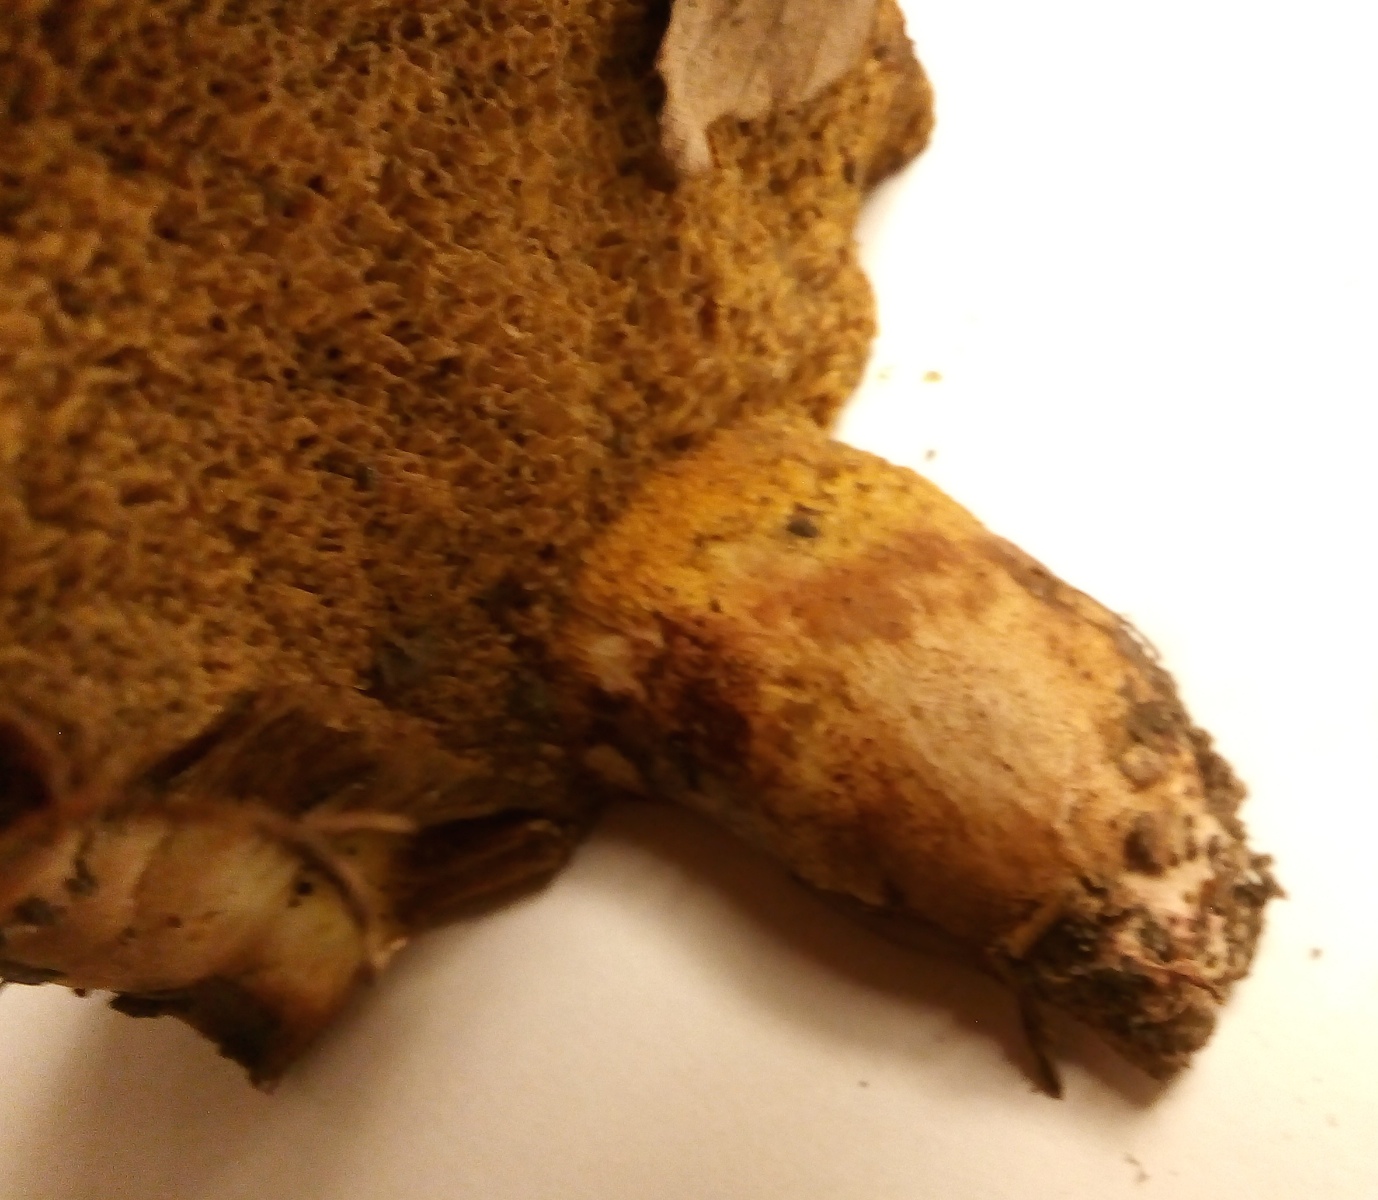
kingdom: Fungi
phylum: Basidiomycota
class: Agaricomycetes
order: Boletales
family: Suillaceae
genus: Suillus
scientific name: Suillus collinitus
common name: rosafodet slimrørhat
